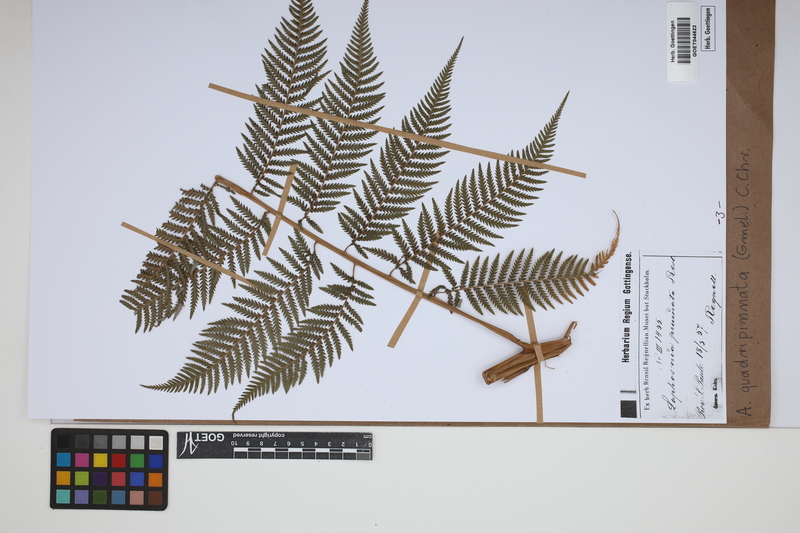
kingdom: Plantae
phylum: Tracheophyta
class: Polypodiopsida
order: Cyatheales
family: Dicksoniaceae
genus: Lophosoria
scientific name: Lophosoria quadripinnata
